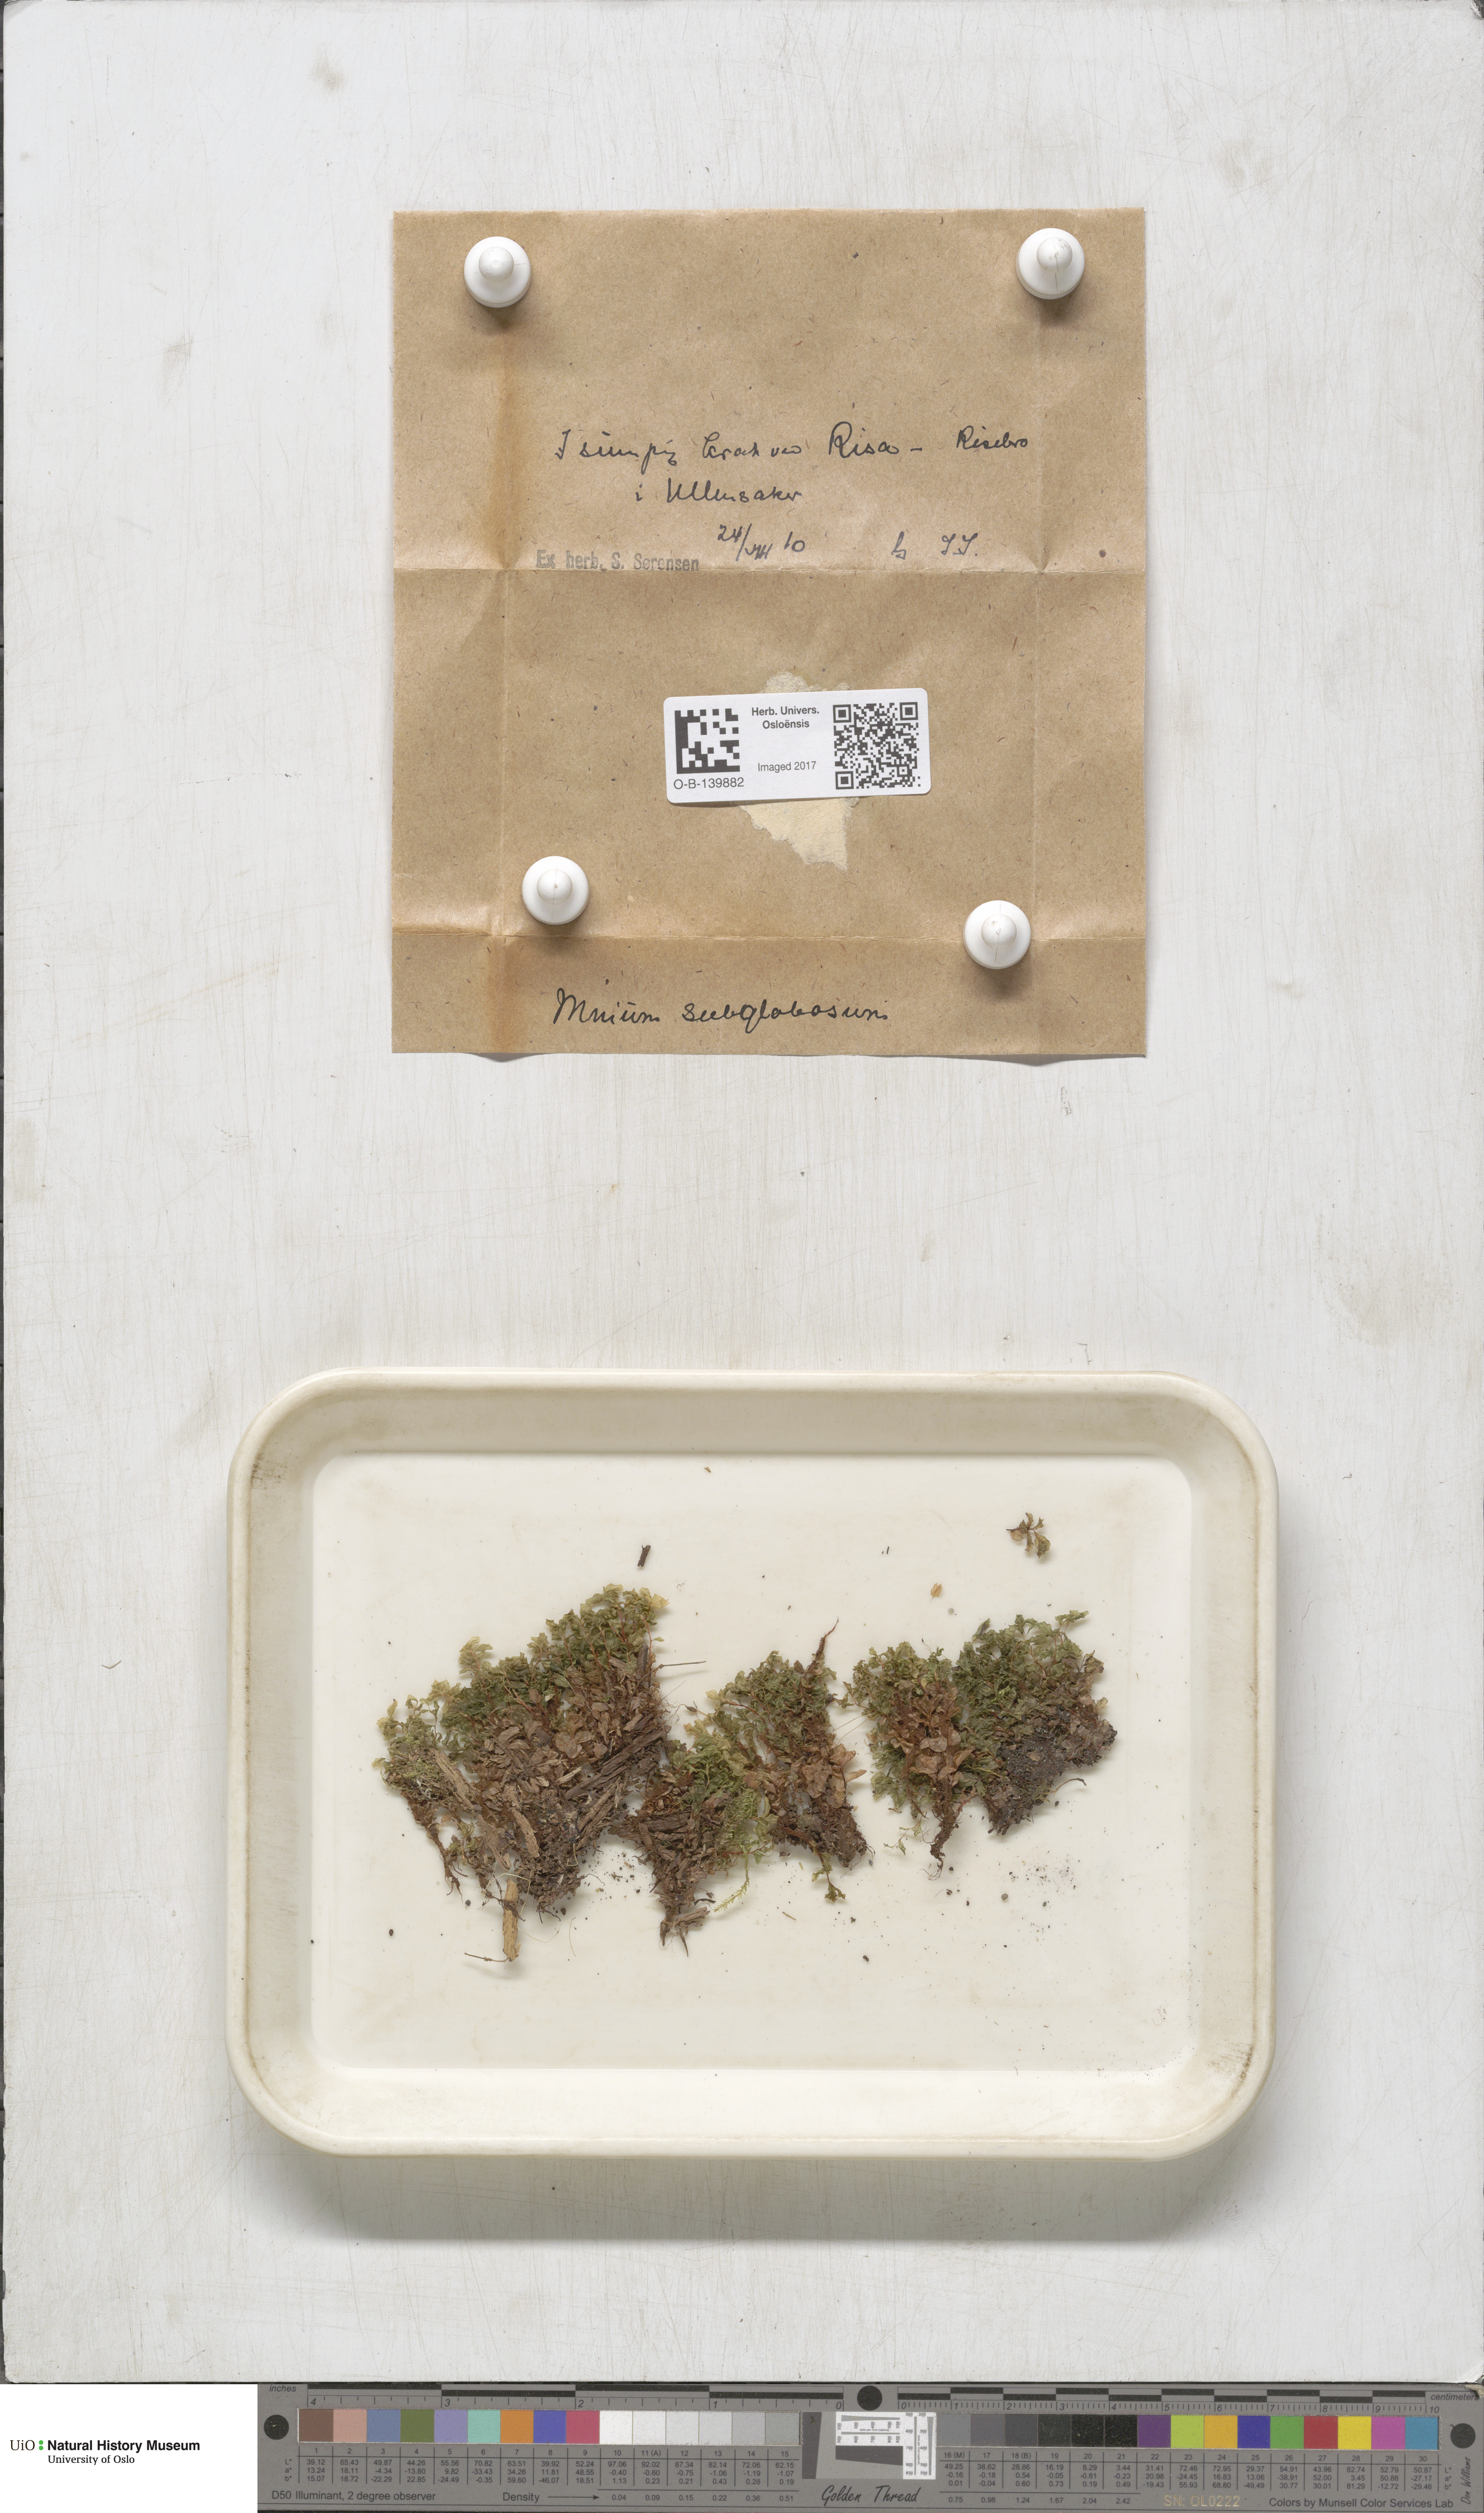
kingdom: Plantae
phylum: Bryophyta
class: Bryopsida
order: Bryales
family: Mniaceae
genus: Rhizomnium
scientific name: Rhizomnium pseudopunctatum
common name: Felted leafy moss
